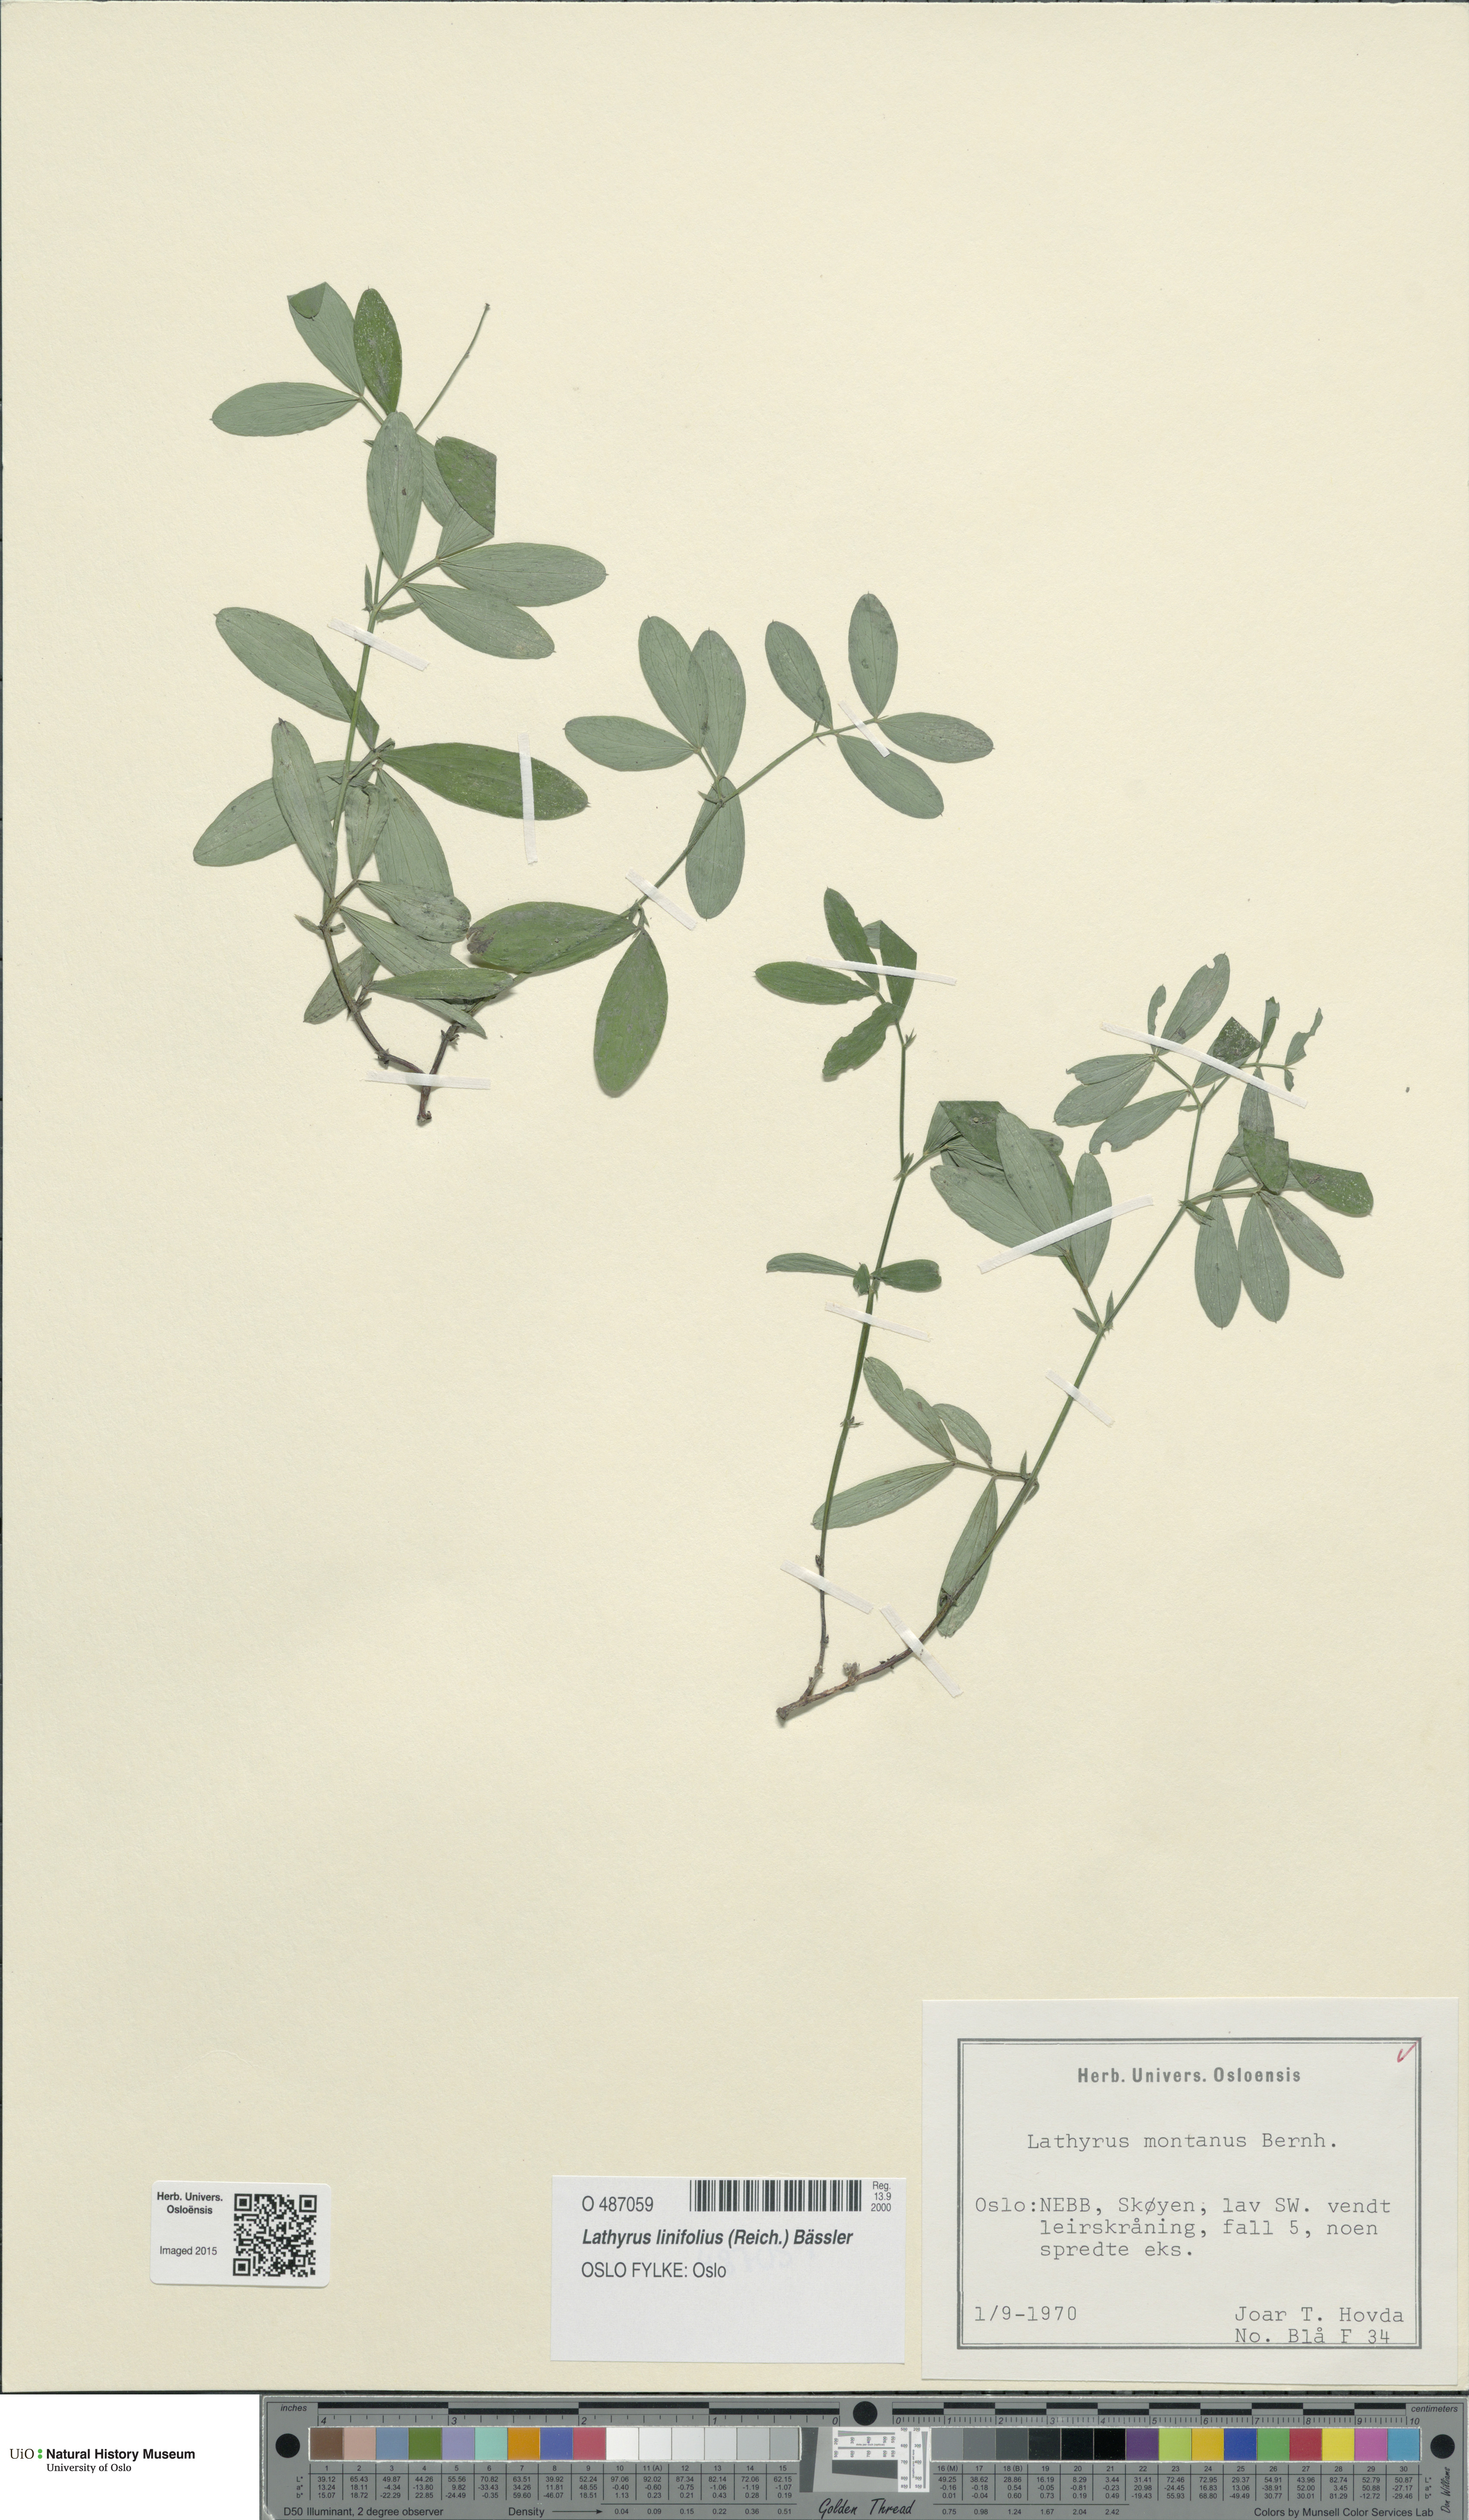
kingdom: Plantae
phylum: Tracheophyta
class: Magnoliopsida
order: Fabales
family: Fabaceae
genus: Lathyrus
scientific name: Lathyrus linifolius
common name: Bitter-vetch
